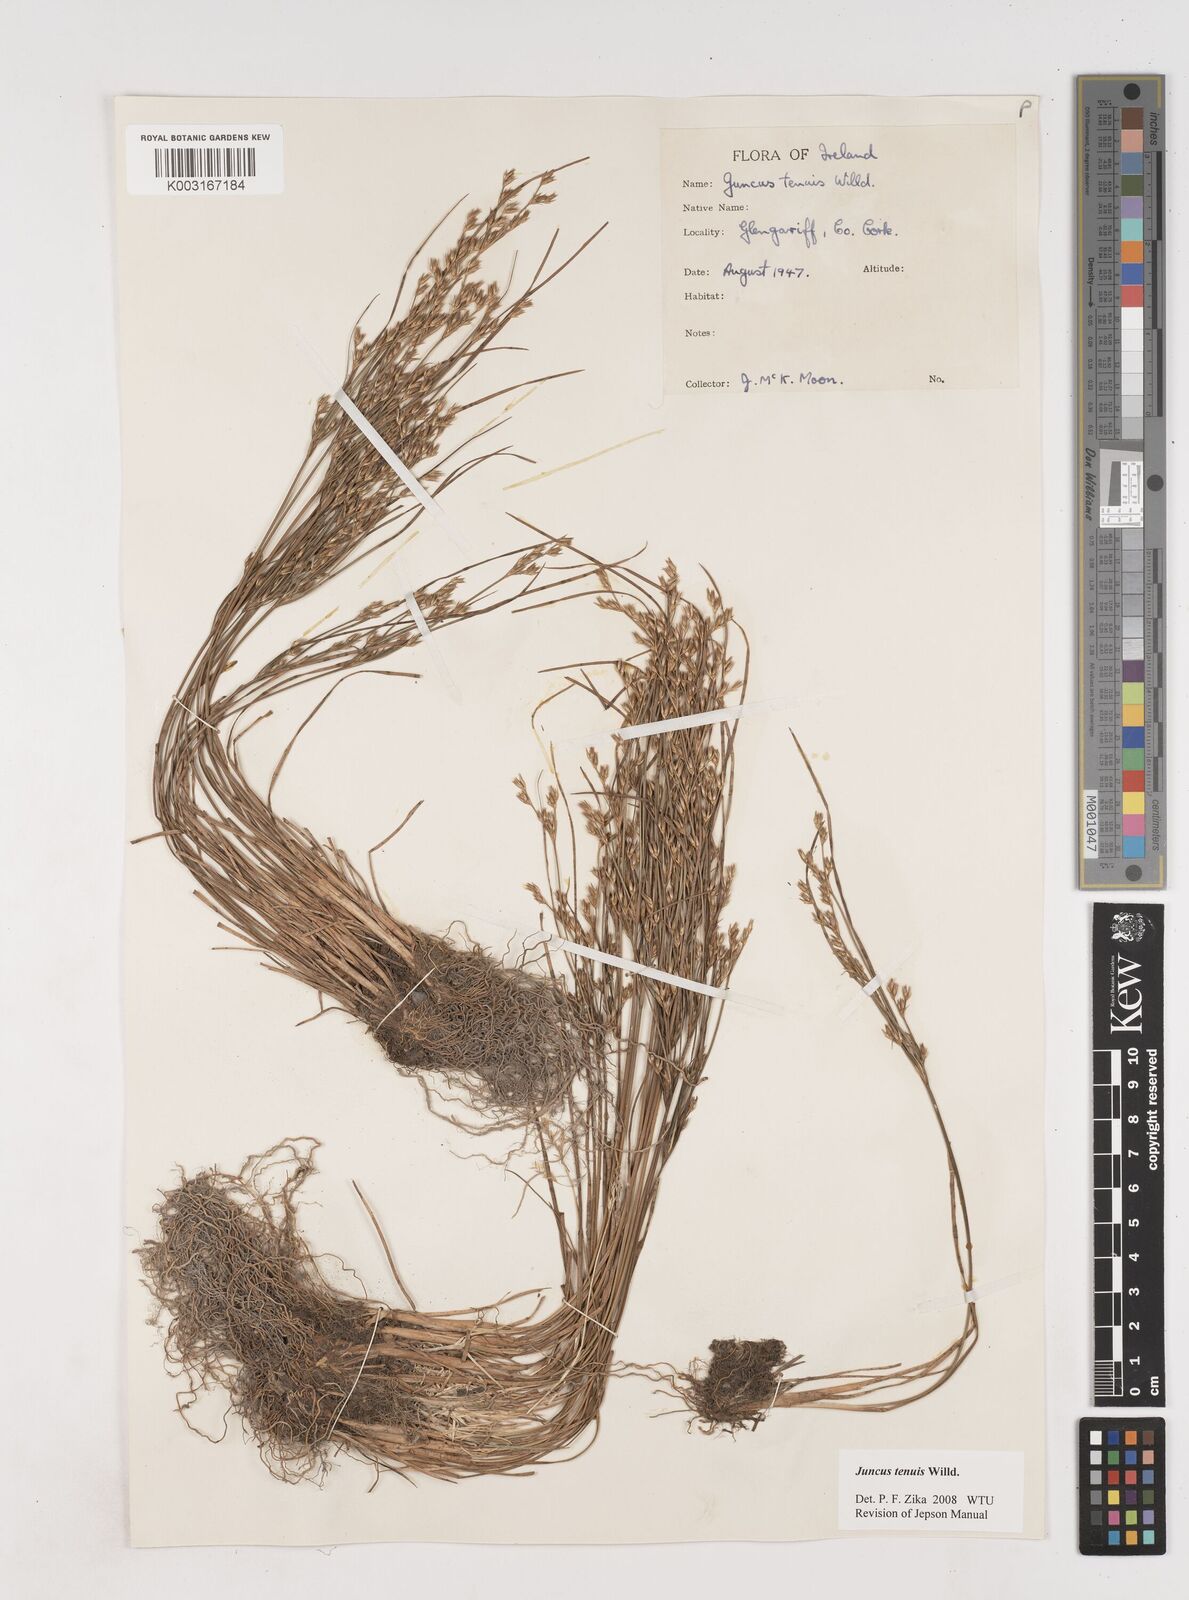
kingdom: Plantae
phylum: Tracheophyta
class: Liliopsida
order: Poales
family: Juncaceae
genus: Juncus
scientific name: Juncus tenuis
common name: Slender rush
